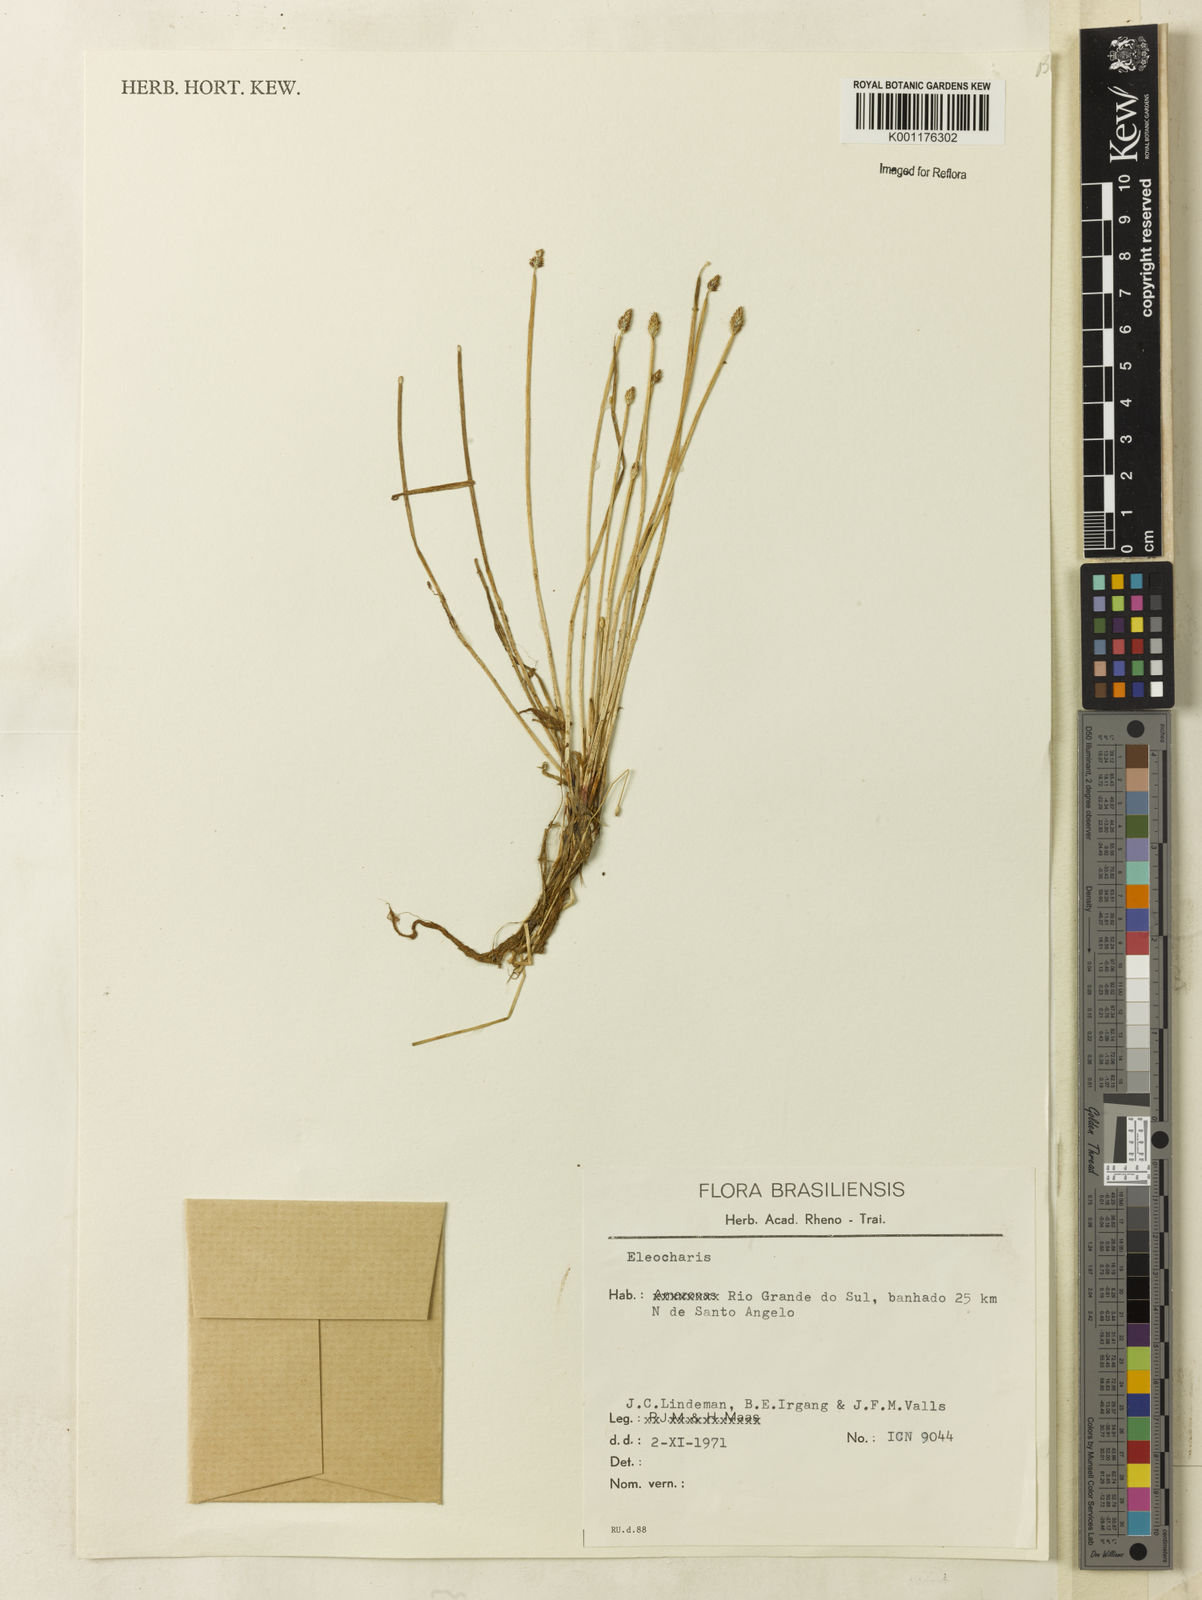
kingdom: Plantae
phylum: Tracheophyta
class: Liliopsida
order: Poales
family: Cyperaceae
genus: Eleocharis
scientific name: Eleocharis
